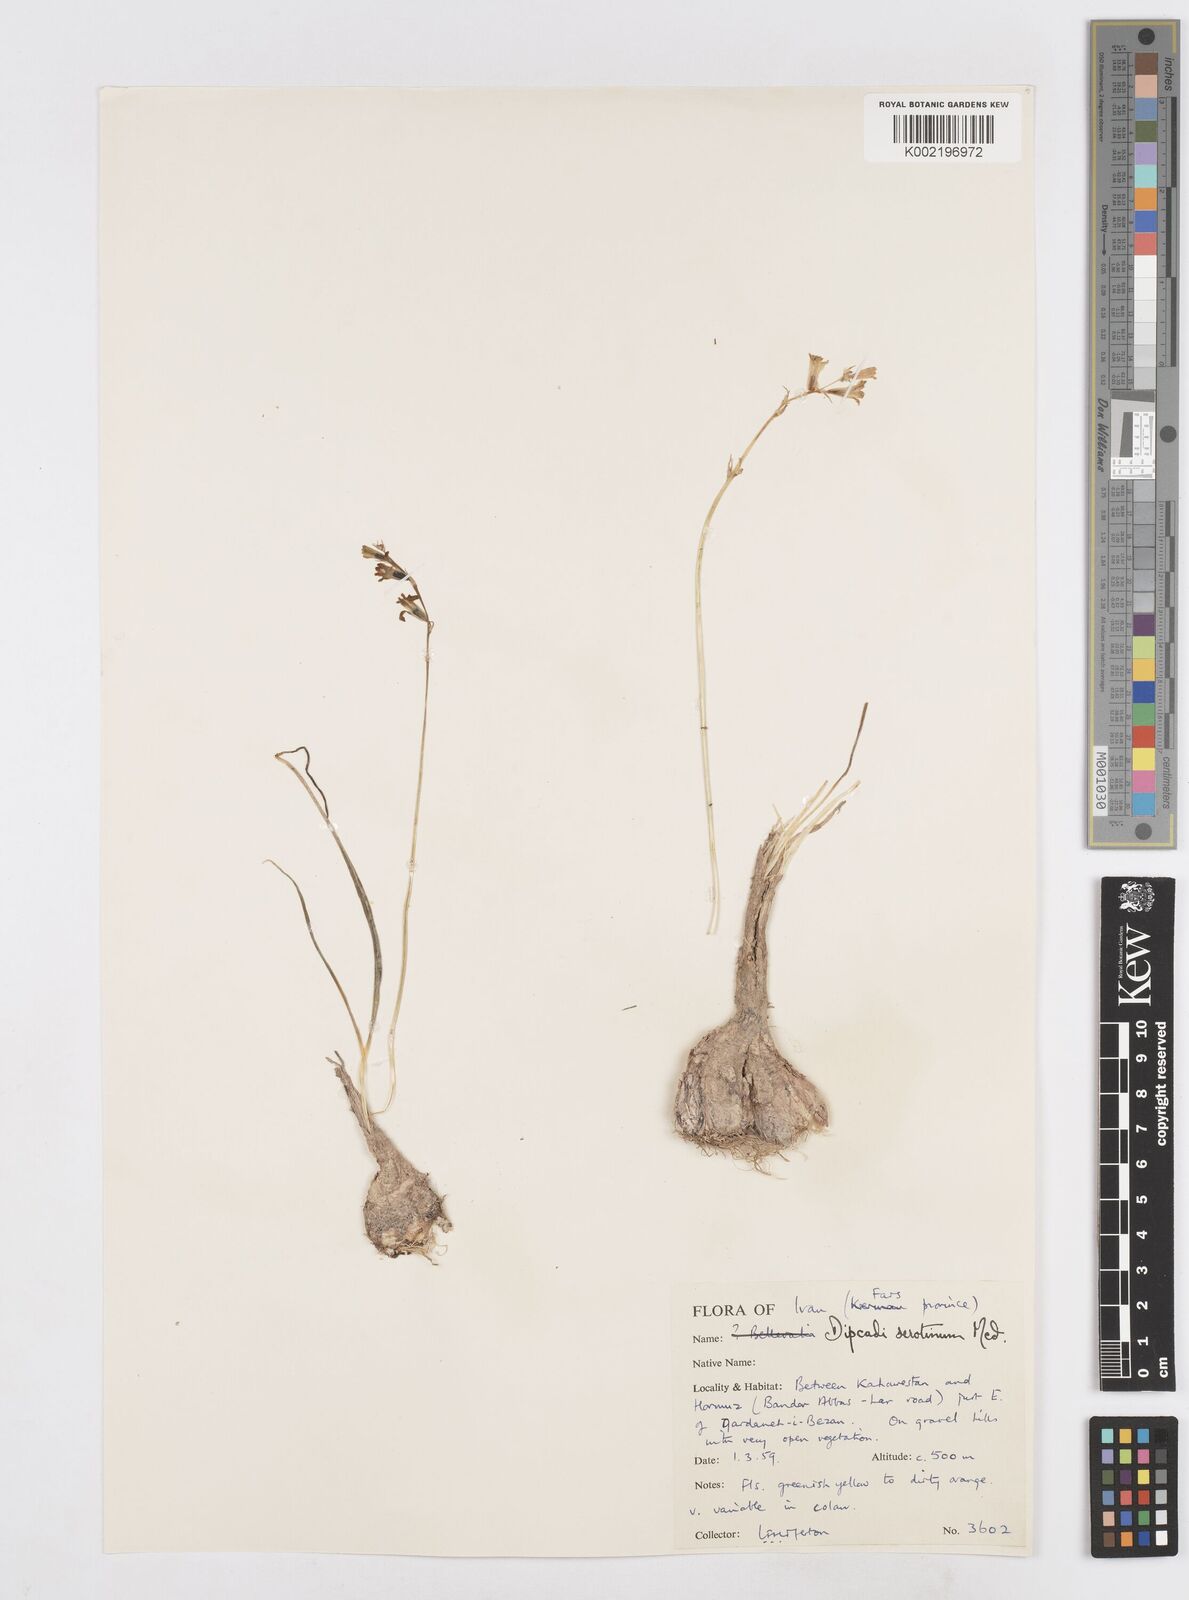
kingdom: Plantae
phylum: Tracheophyta
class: Liliopsida
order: Asparagales
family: Asparagaceae
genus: Dipcadi
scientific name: Dipcadi erythraeum
